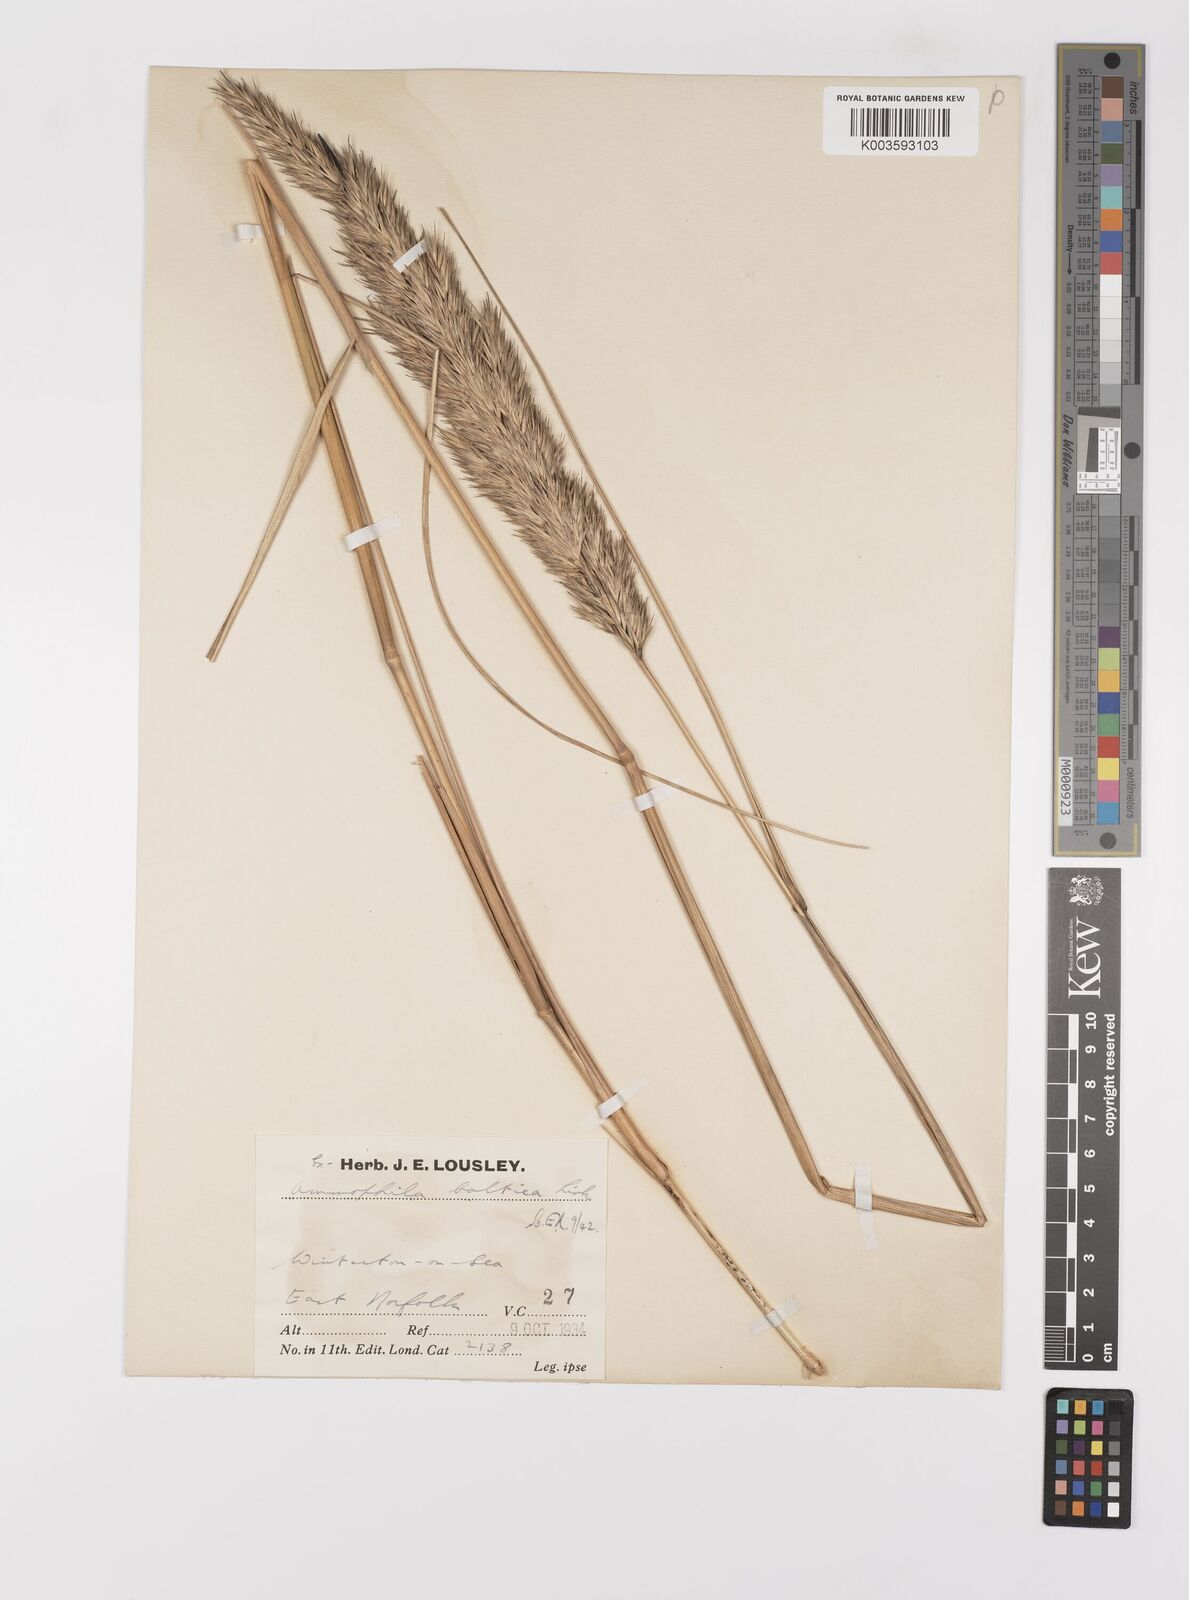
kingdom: Plantae
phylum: Tracheophyta
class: Liliopsida
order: Poales
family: Poaceae
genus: Calamagrostis
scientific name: Calamagrostis baltica
